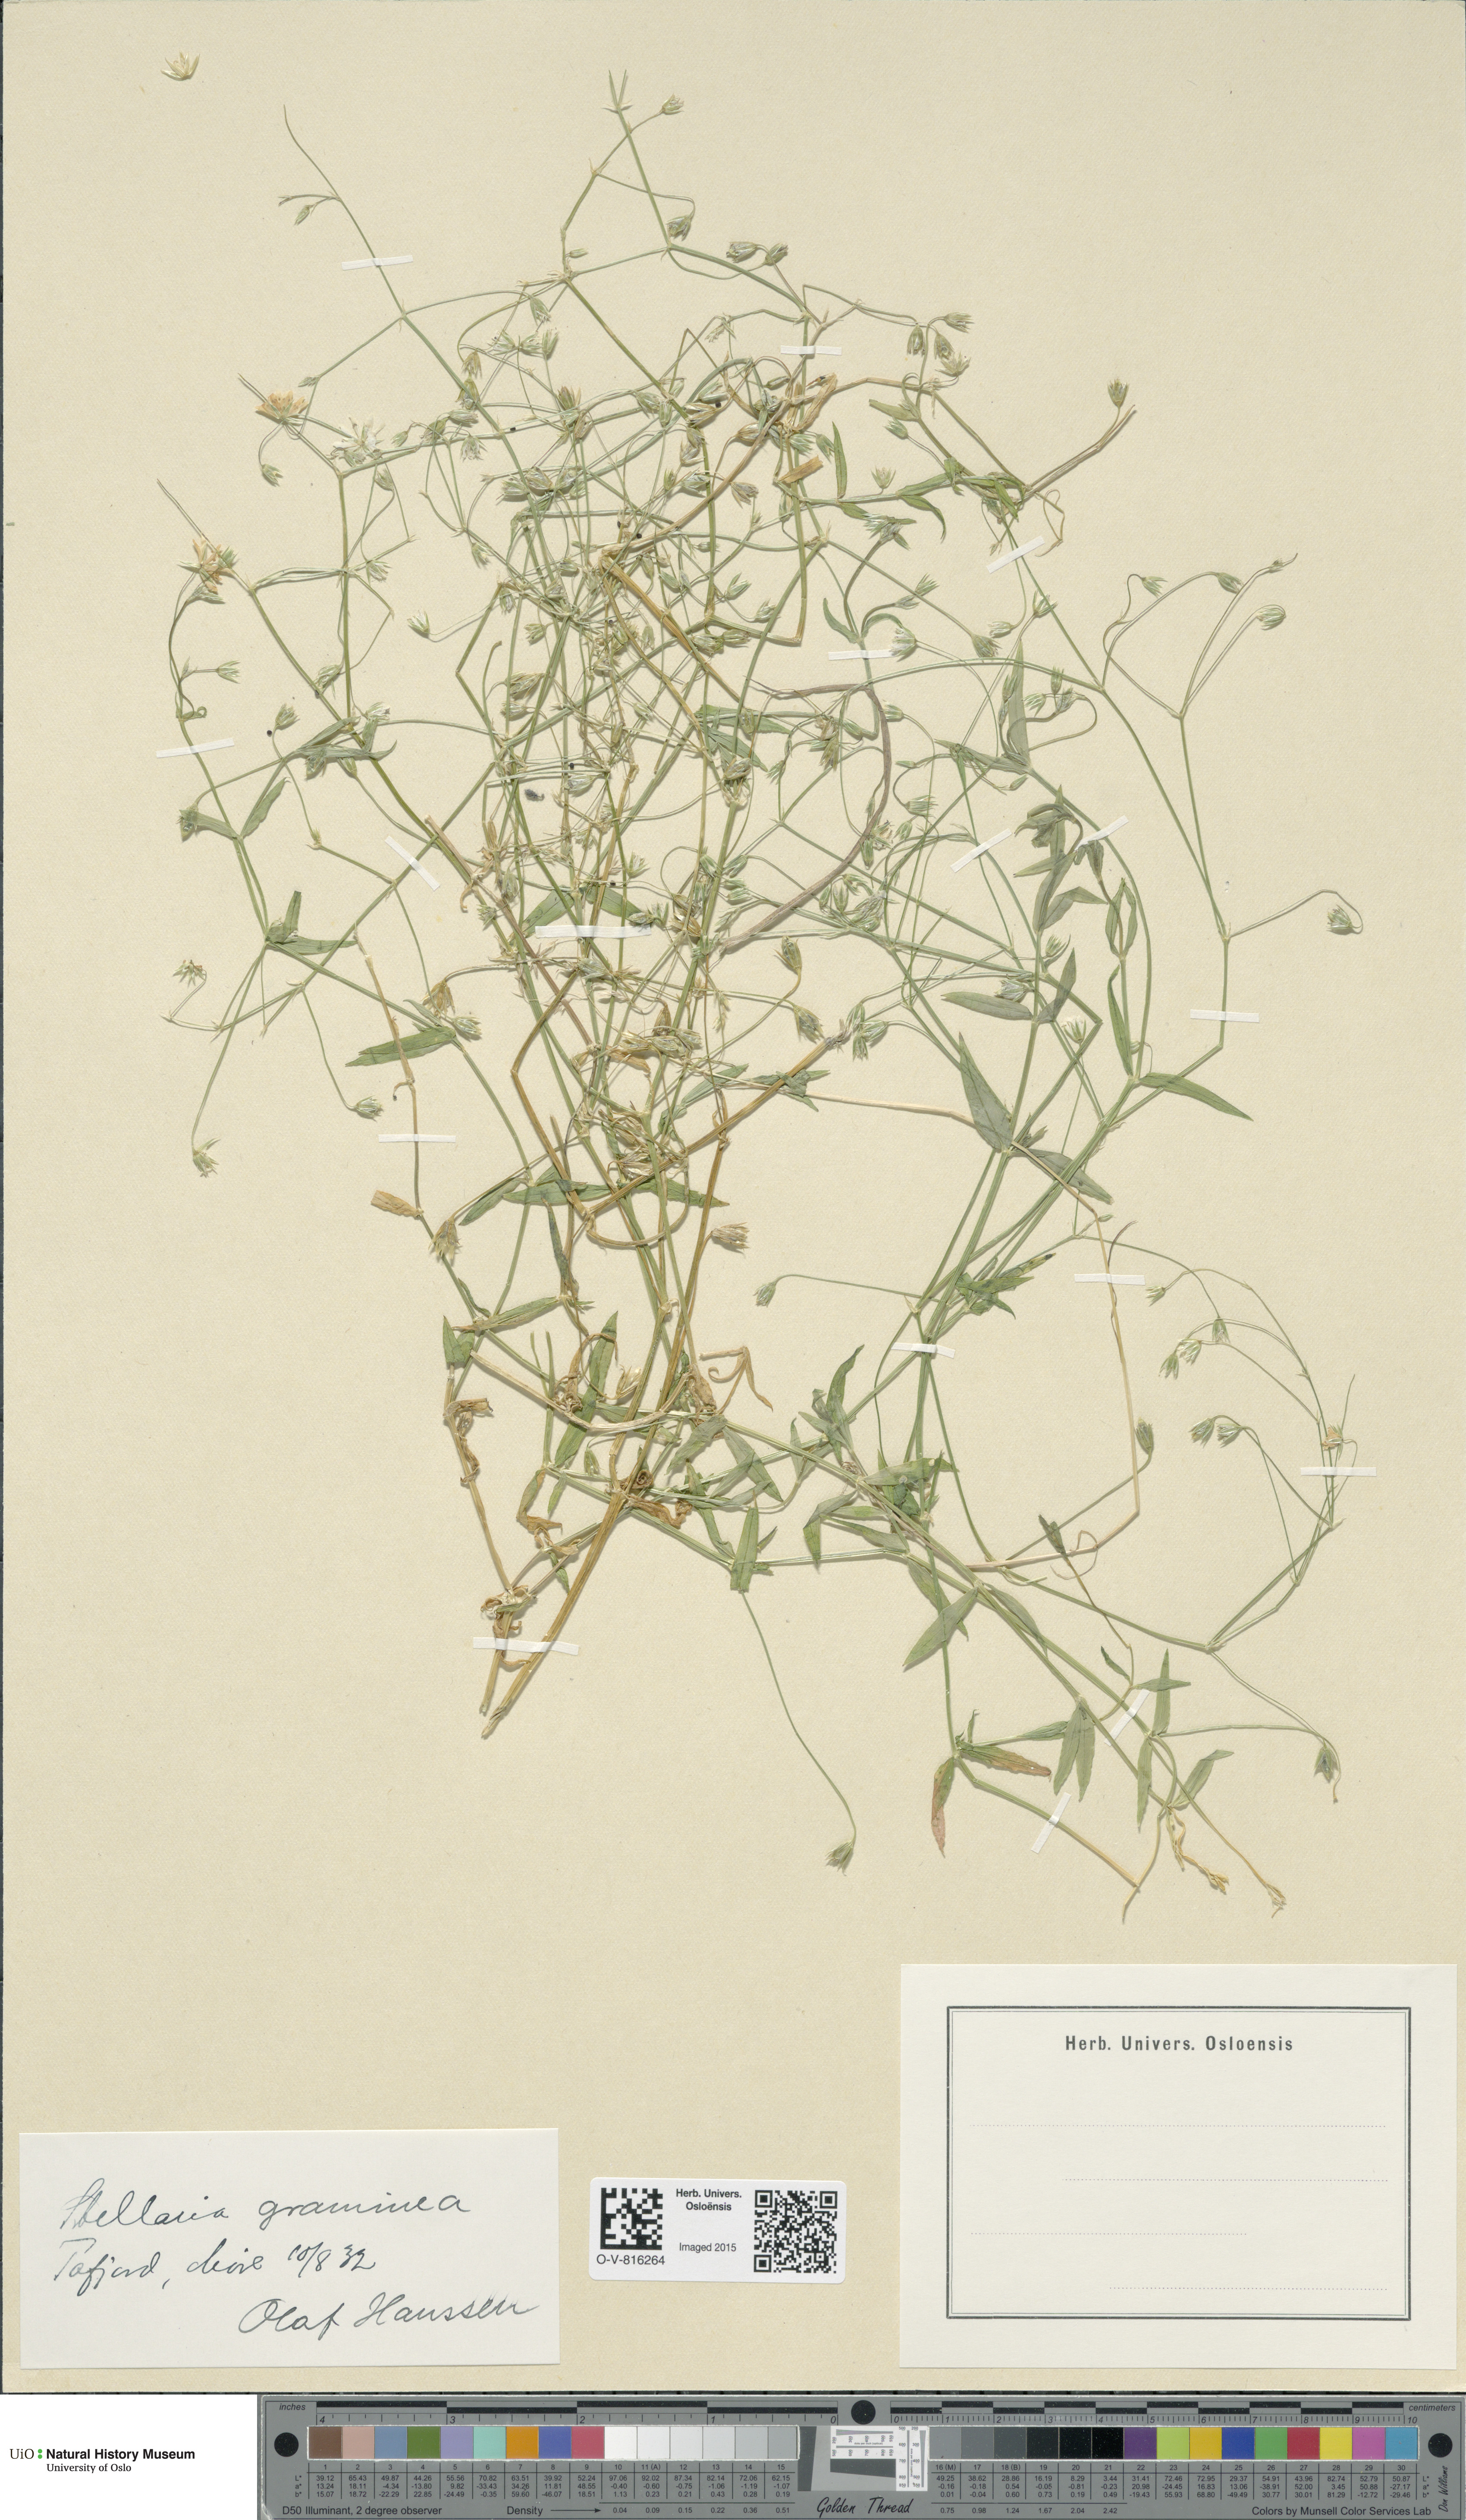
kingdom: Plantae
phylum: Tracheophyta
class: Magnoliopsida
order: Caryophyllales
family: Caryophyllaceae
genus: Stellaria
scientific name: Stellaria graminea
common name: Grass-like starwort
